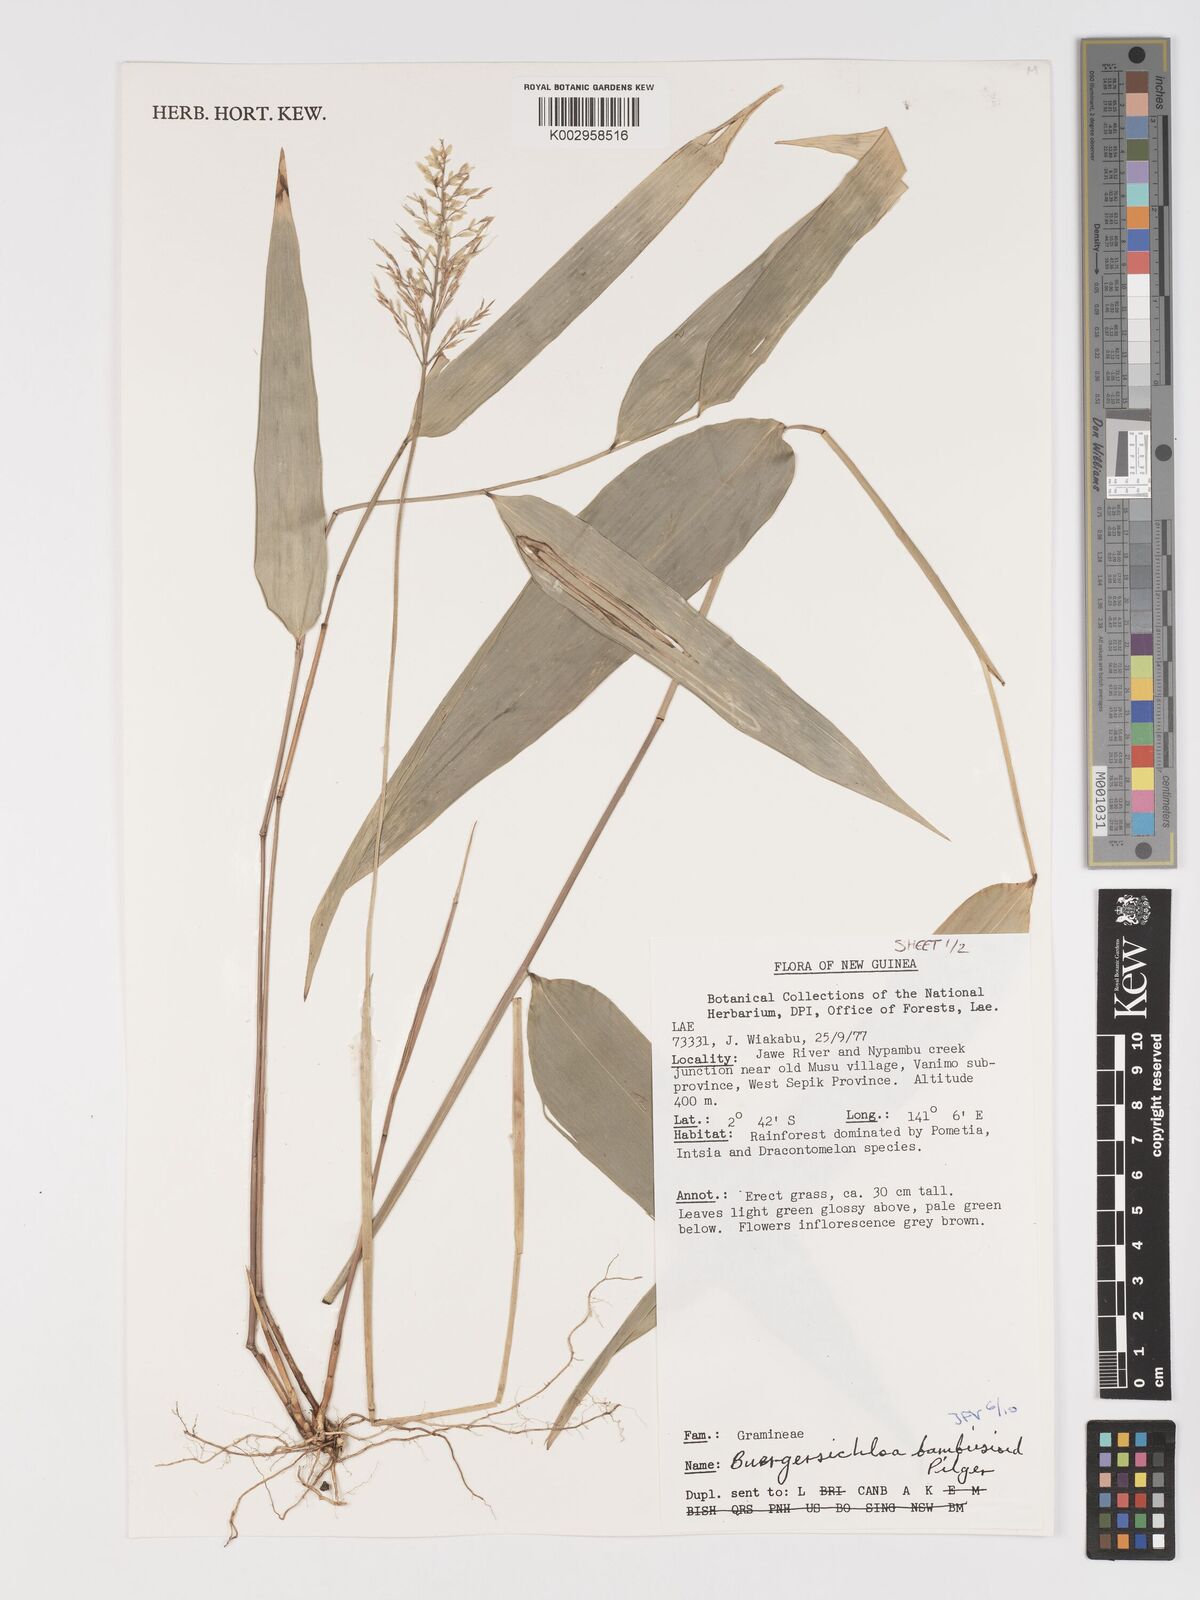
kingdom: Plantae
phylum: Tracheophyta
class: Liliopsida
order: Poales
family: Poaceae
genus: Buergersiochloa
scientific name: Buergersiochloa bambusoides
